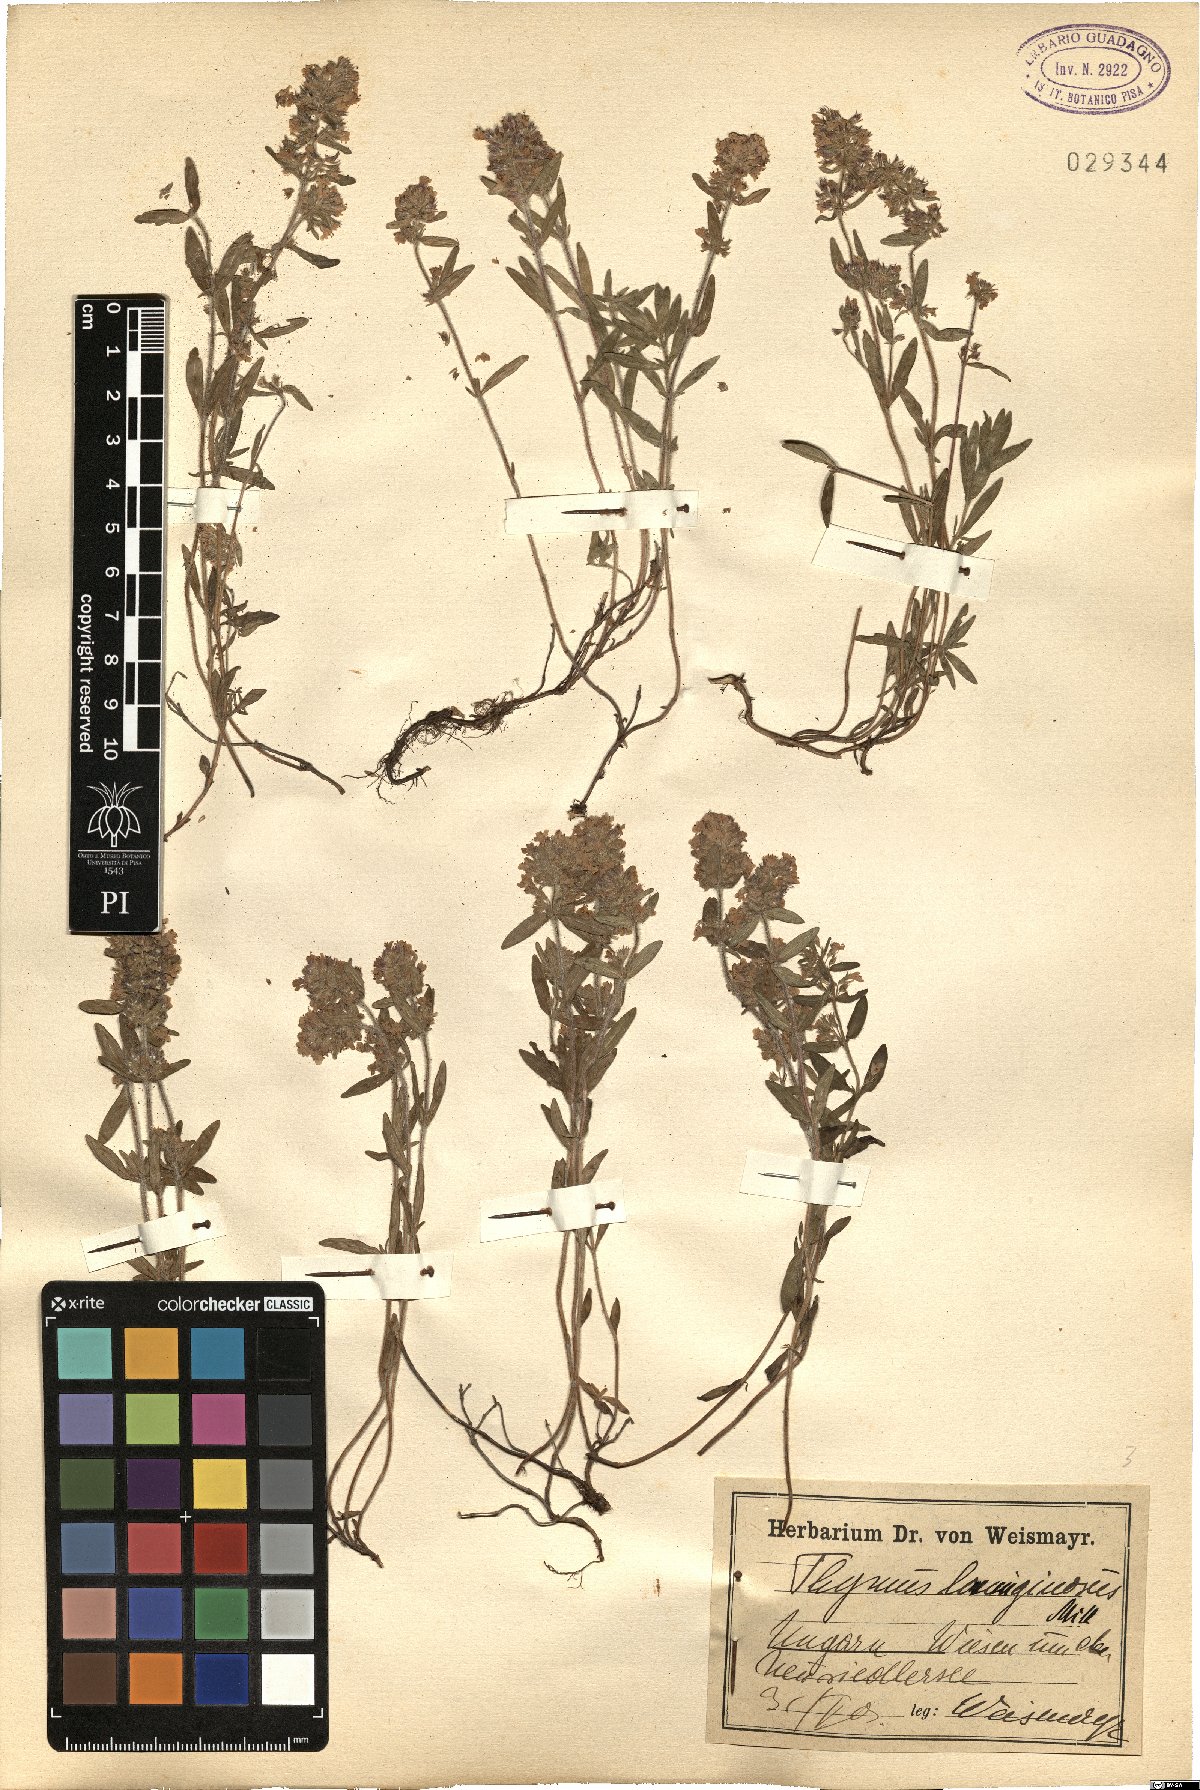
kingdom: Plantae
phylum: Tracheophyta
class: Magnoliopsida
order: Lamiales
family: Lamiaceae
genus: Thymus
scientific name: Thymus pulegioides
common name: Large thyme
